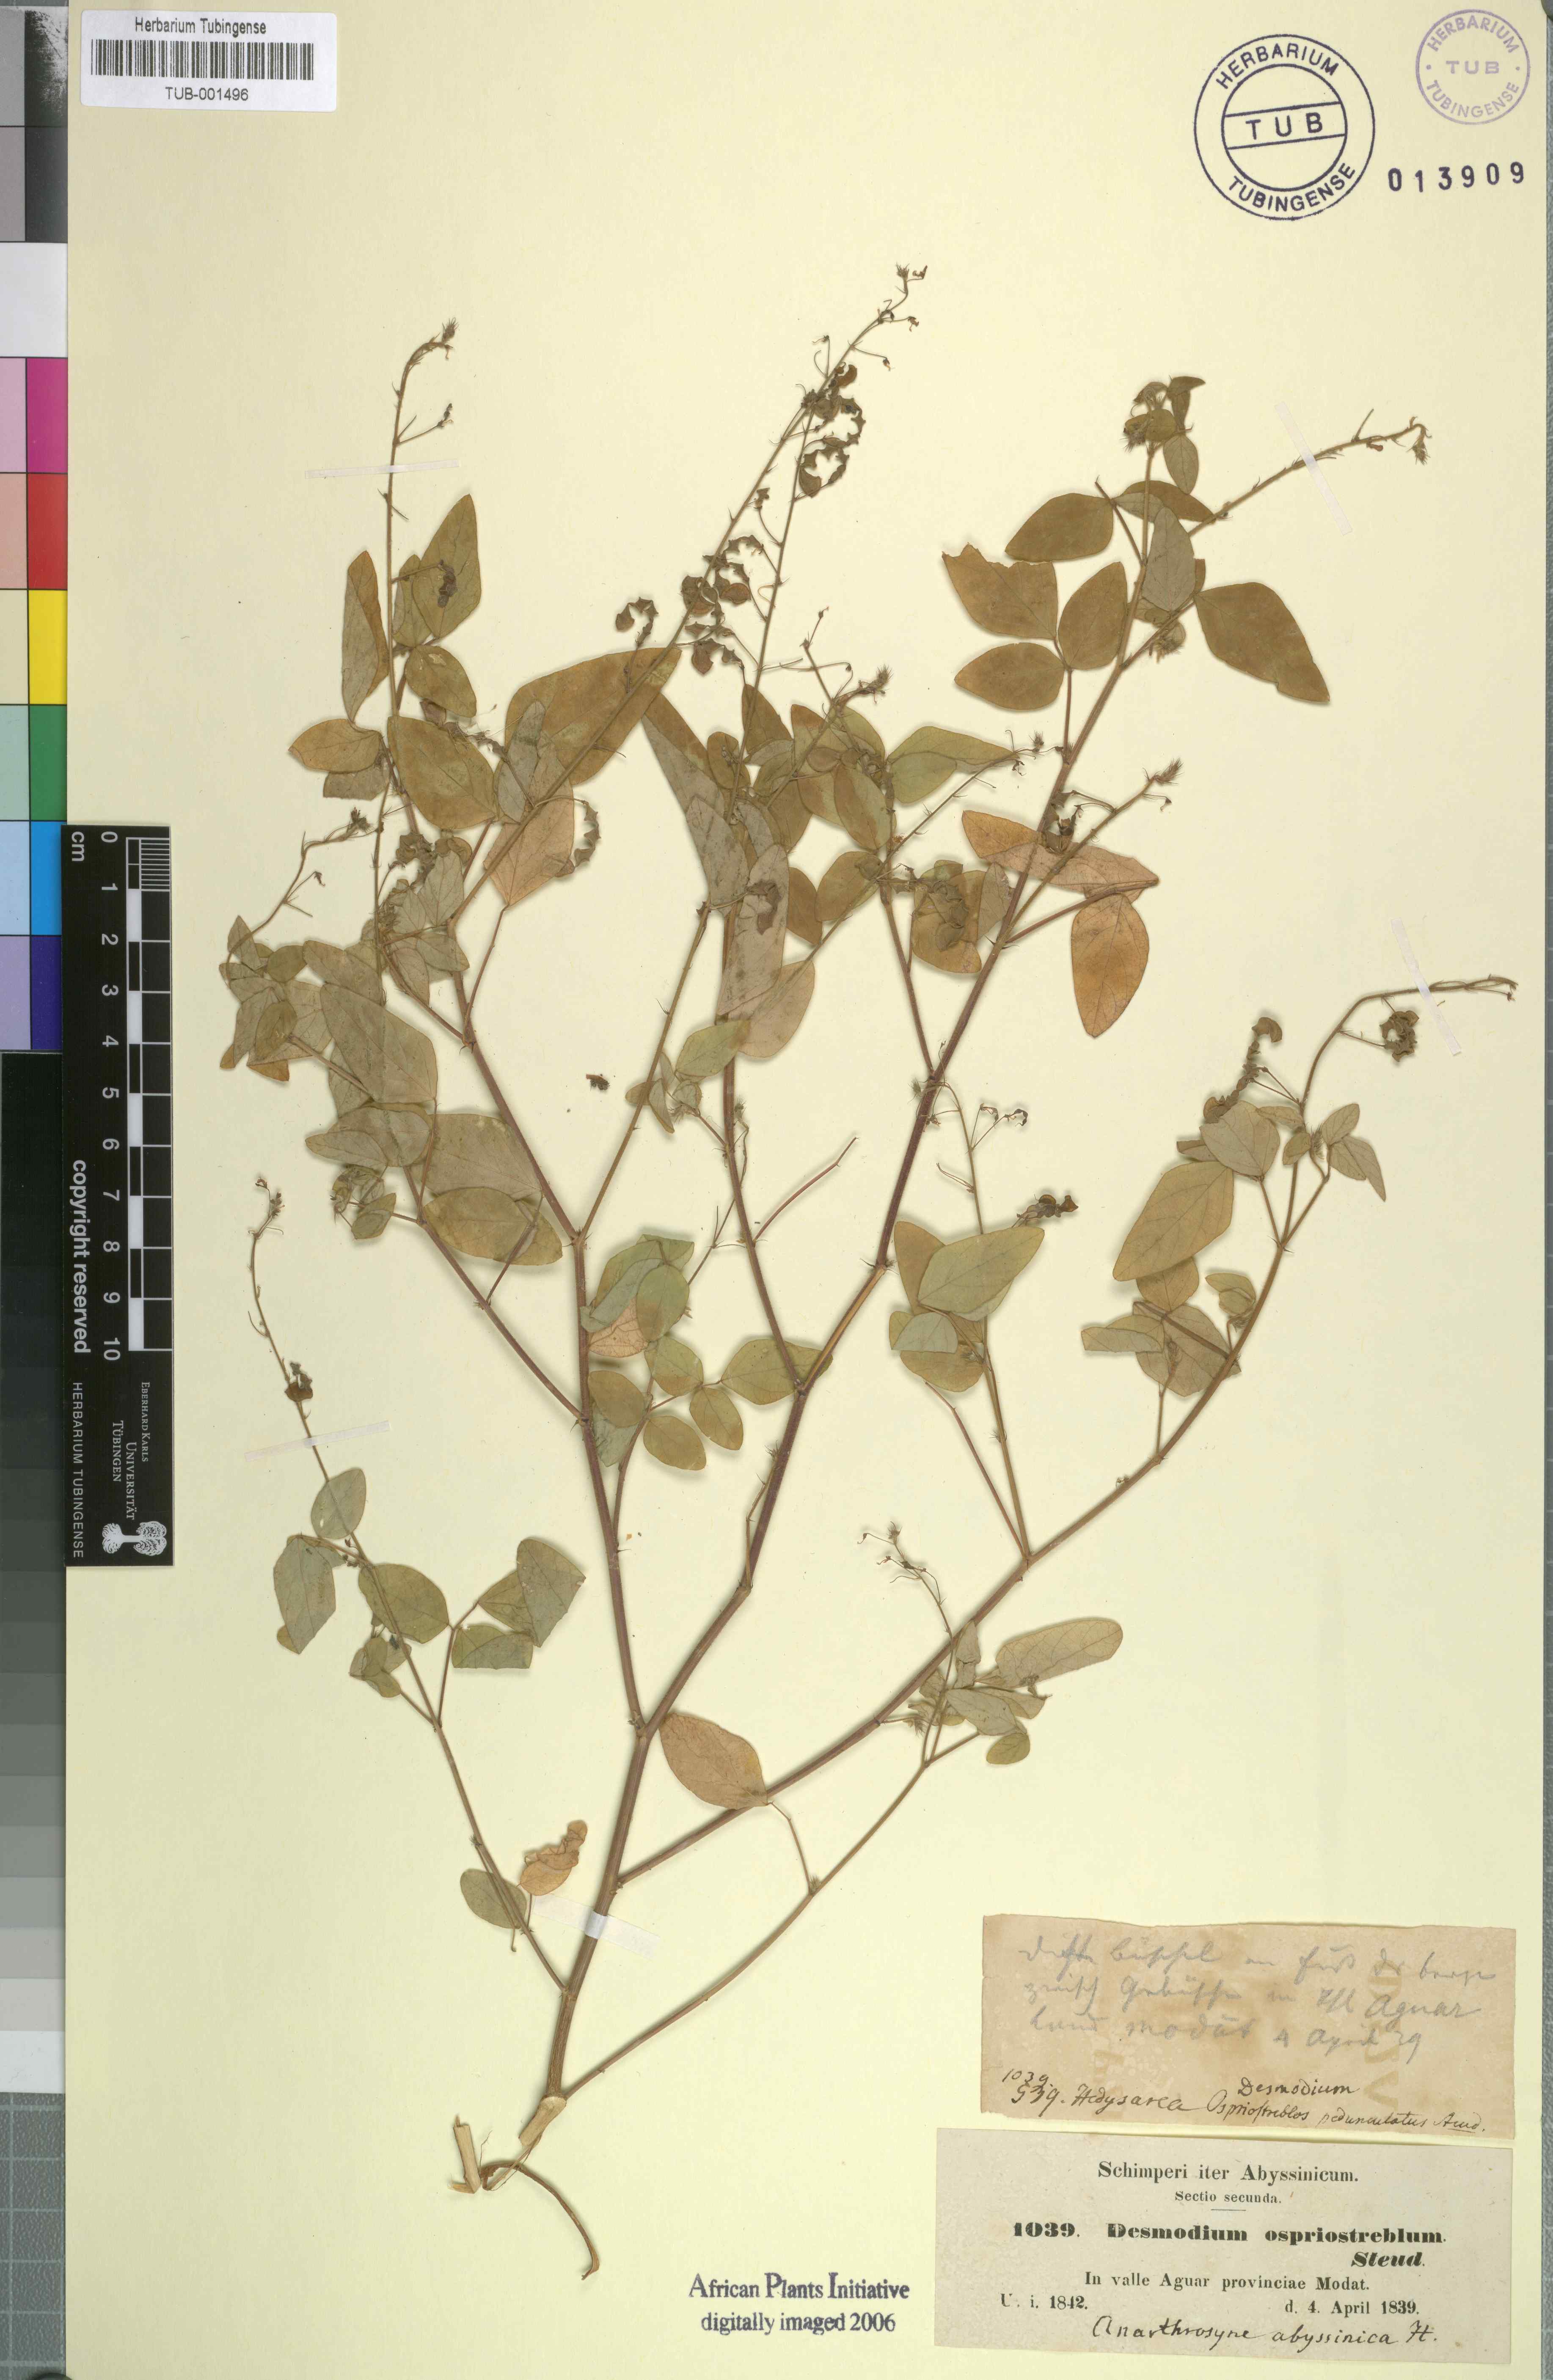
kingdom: Plantae
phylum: Tracheophyta
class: Magnoliopsida
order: Fabales
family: Fabaceae
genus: Desmodium
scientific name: Desmodium procumbens
